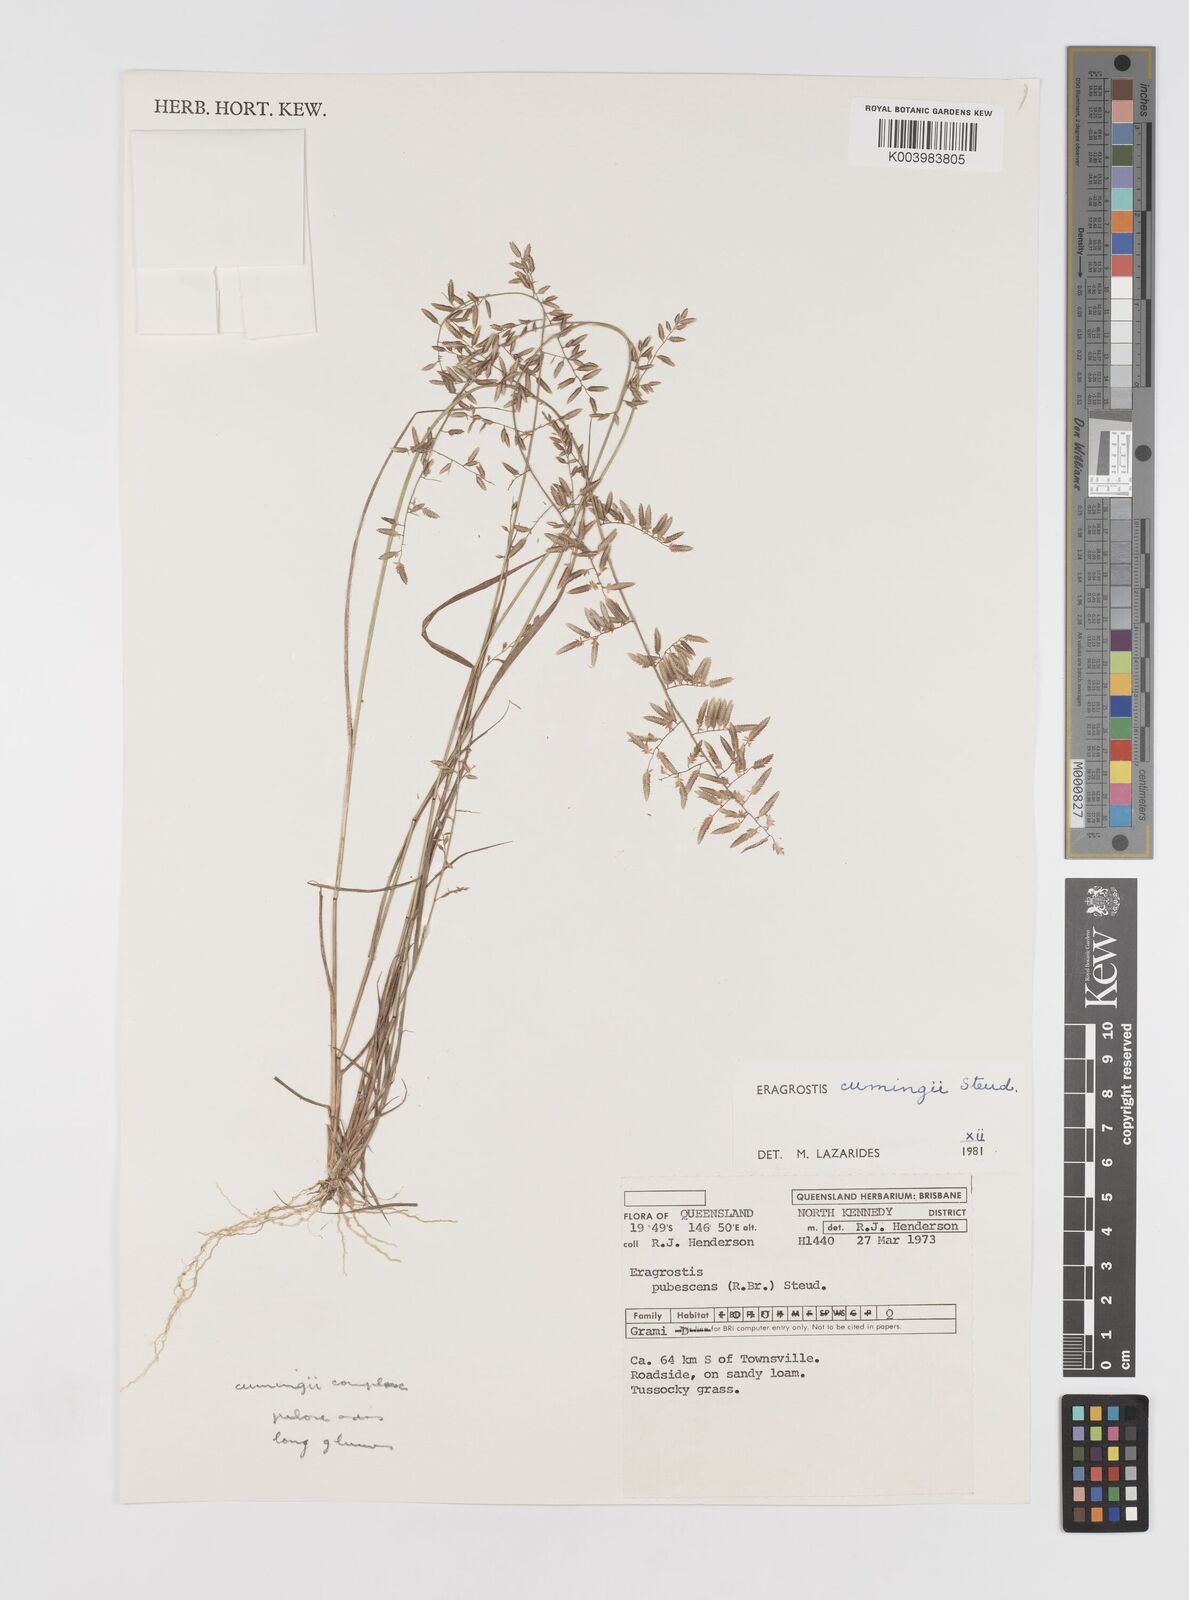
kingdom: Plantae
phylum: Tracheophyta
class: Liliopsida
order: Poales
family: Poaceae
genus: Eragrostis
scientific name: Eragrostis cumingii
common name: Cuming's lovegrass
